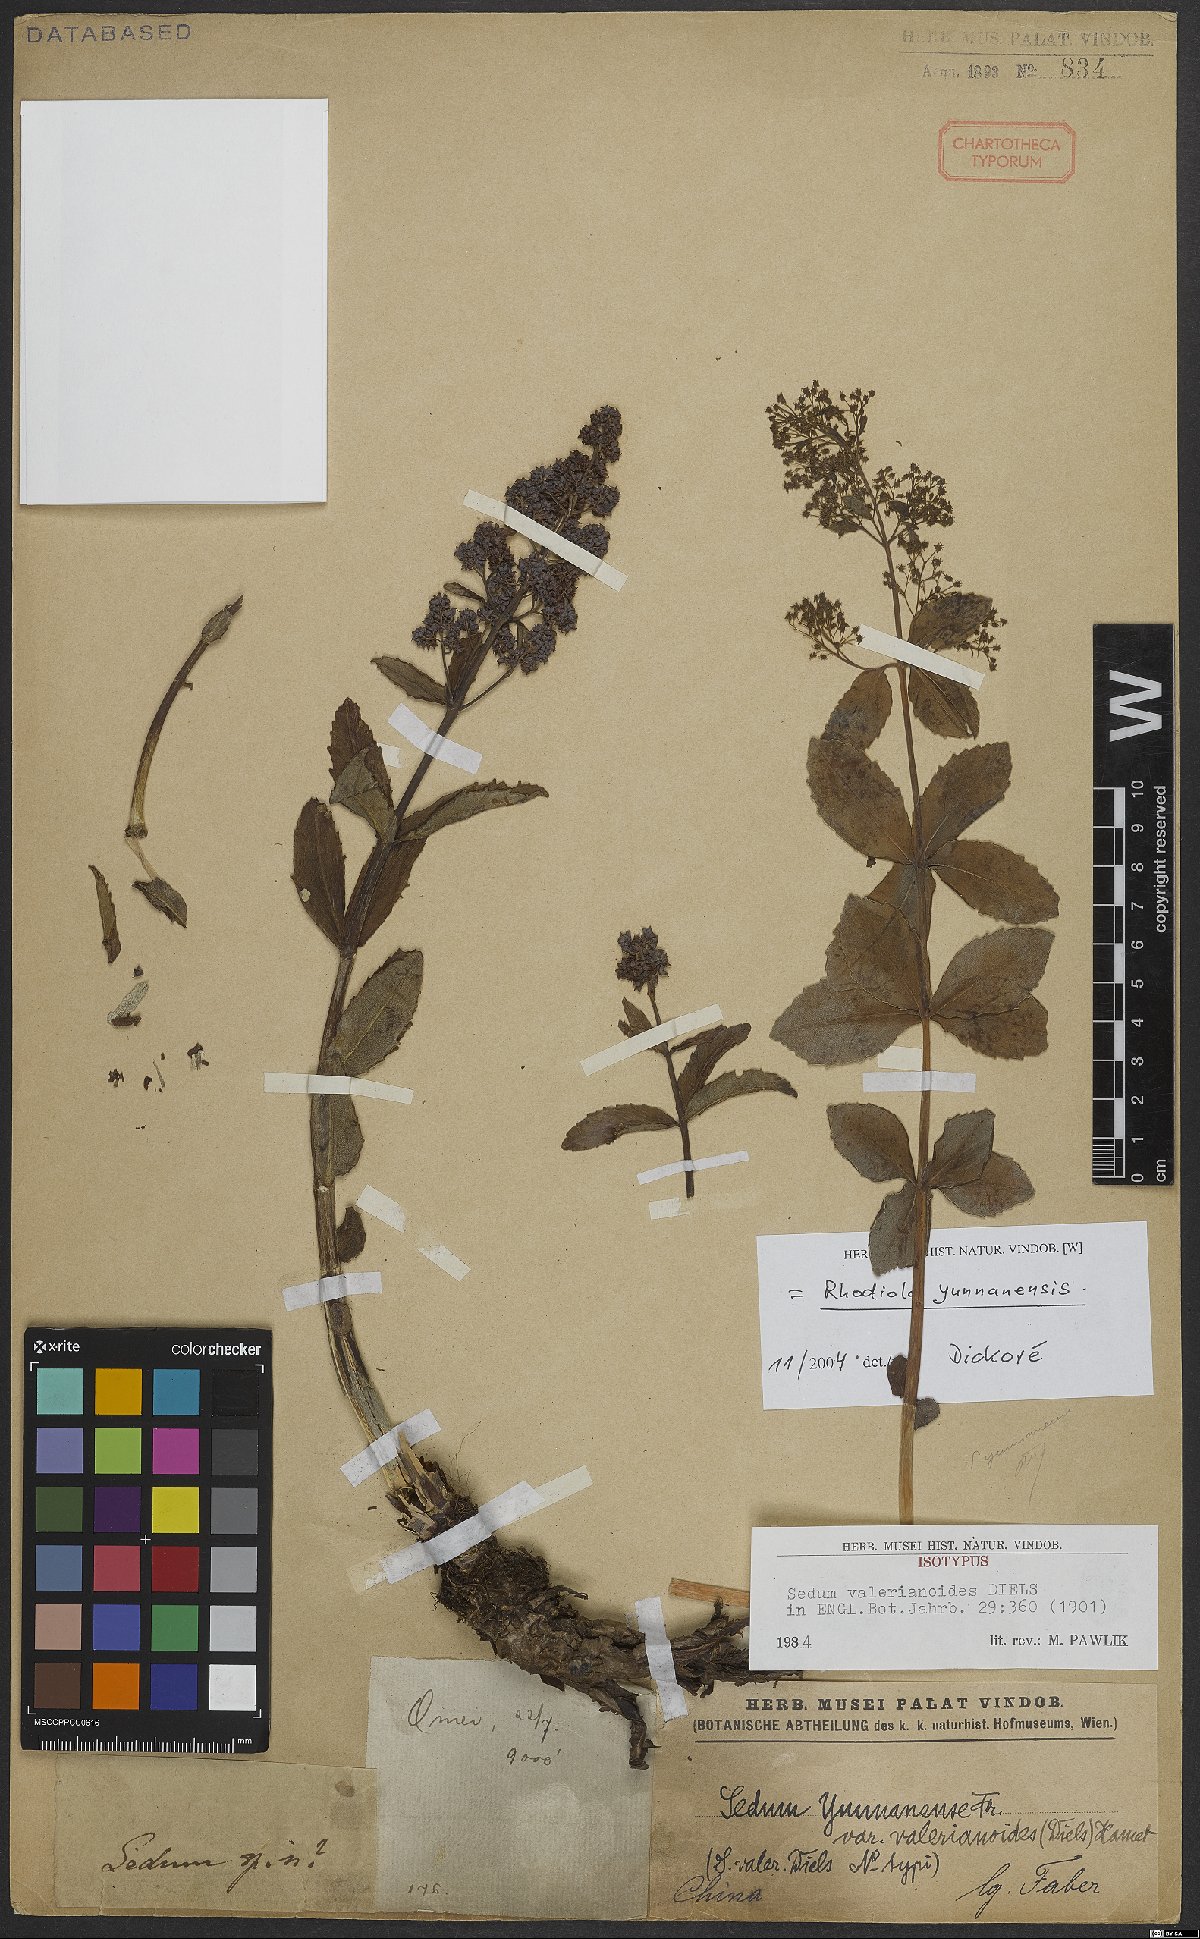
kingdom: Plantae
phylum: Tracheophyta
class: Magnoliopsida
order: Saxifragales
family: Crassulaceae
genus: Rhodiola
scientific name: Rhodiola yunnanensis
